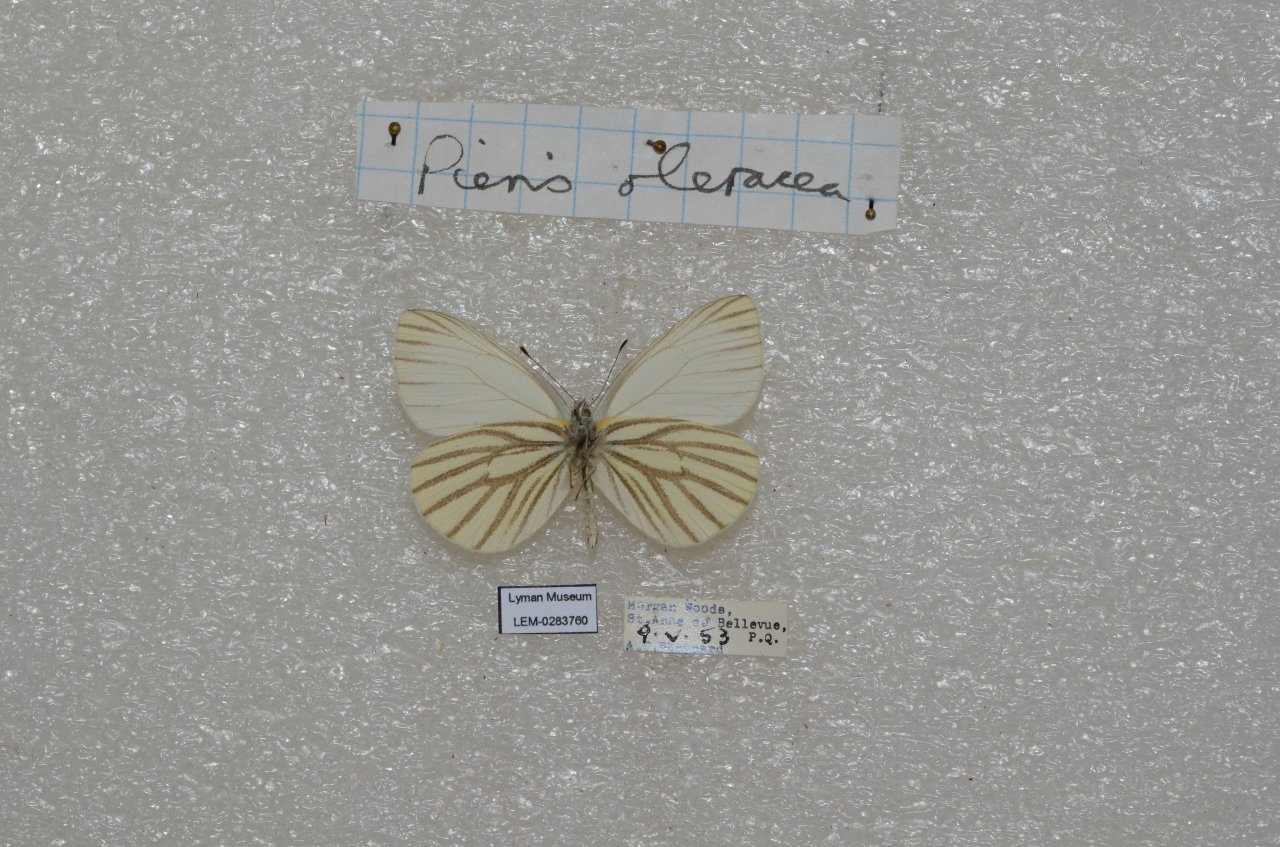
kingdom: Animalia
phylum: Arthropoda
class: Insecta
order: Lepidoptera
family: Pieridae
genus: Pieris
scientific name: Pieris oleracea
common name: Mustard White
